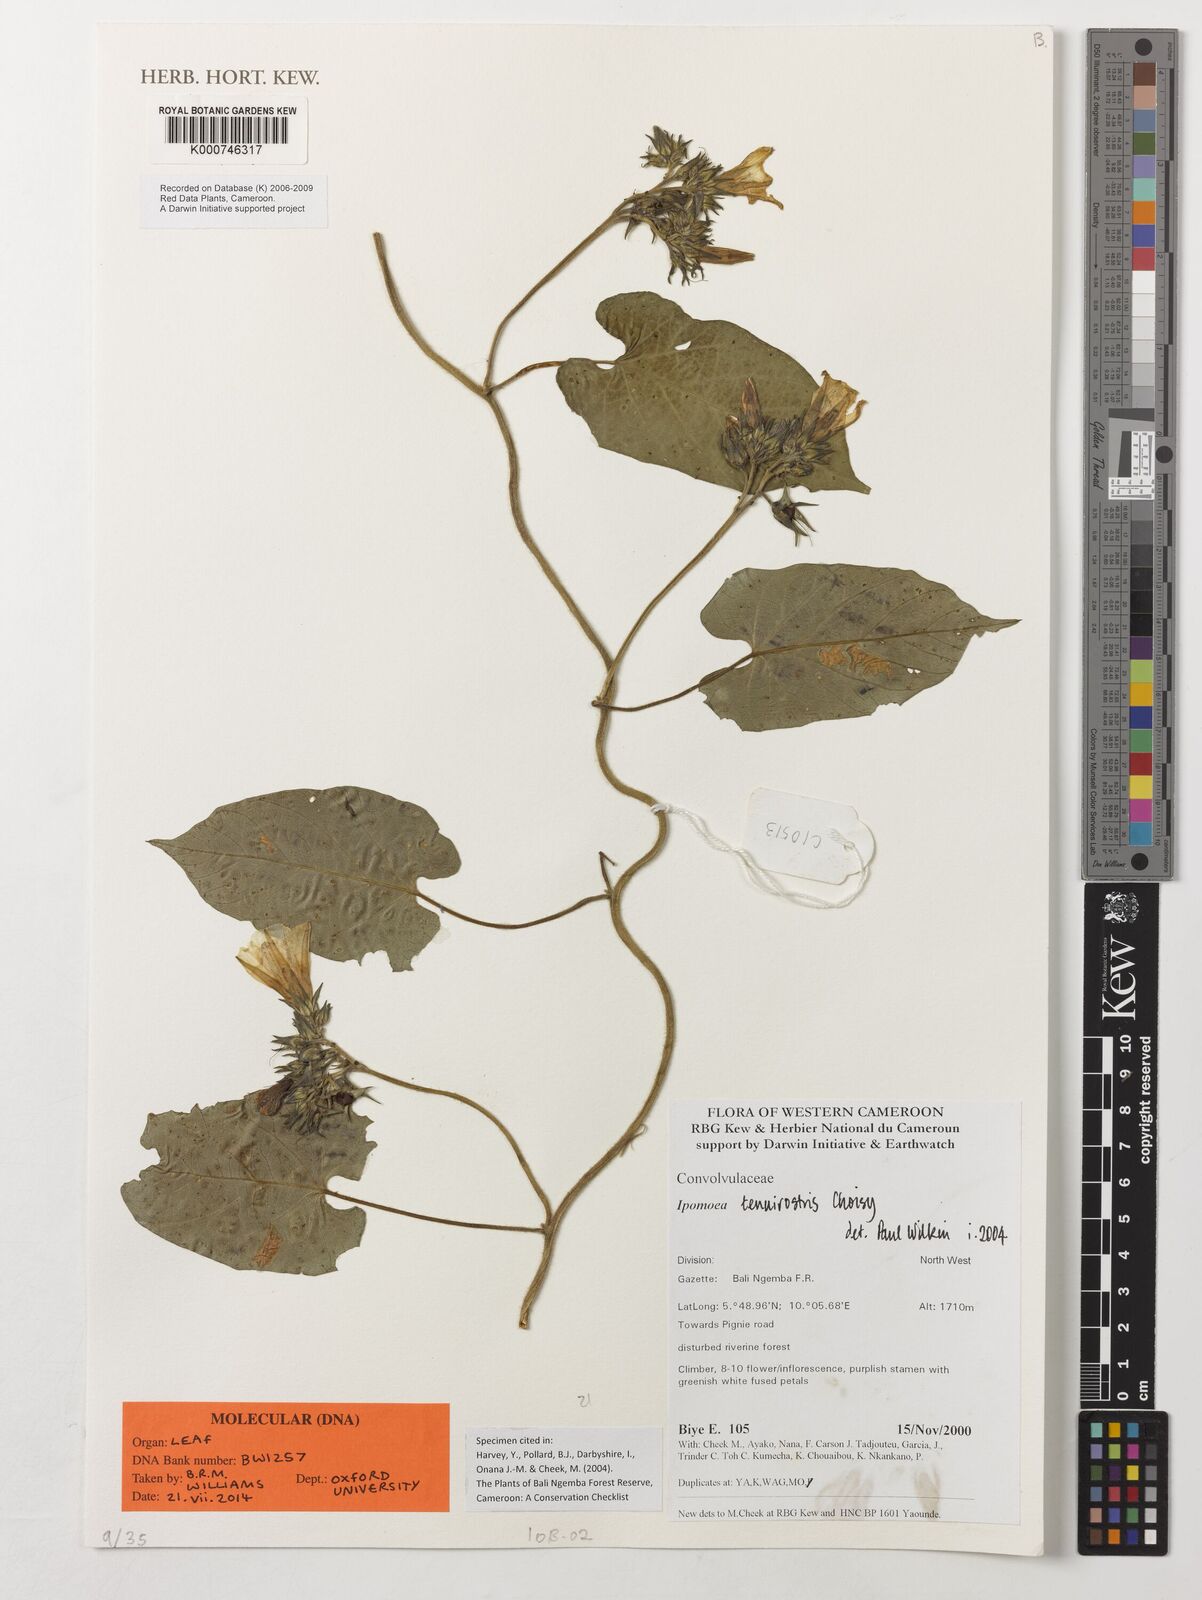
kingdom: Plantae
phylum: Tracheophyta
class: Magnoliopsida
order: Solanales
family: Convolvulaceae
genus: Ipomoea
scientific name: Ipomoea tenuirostris
